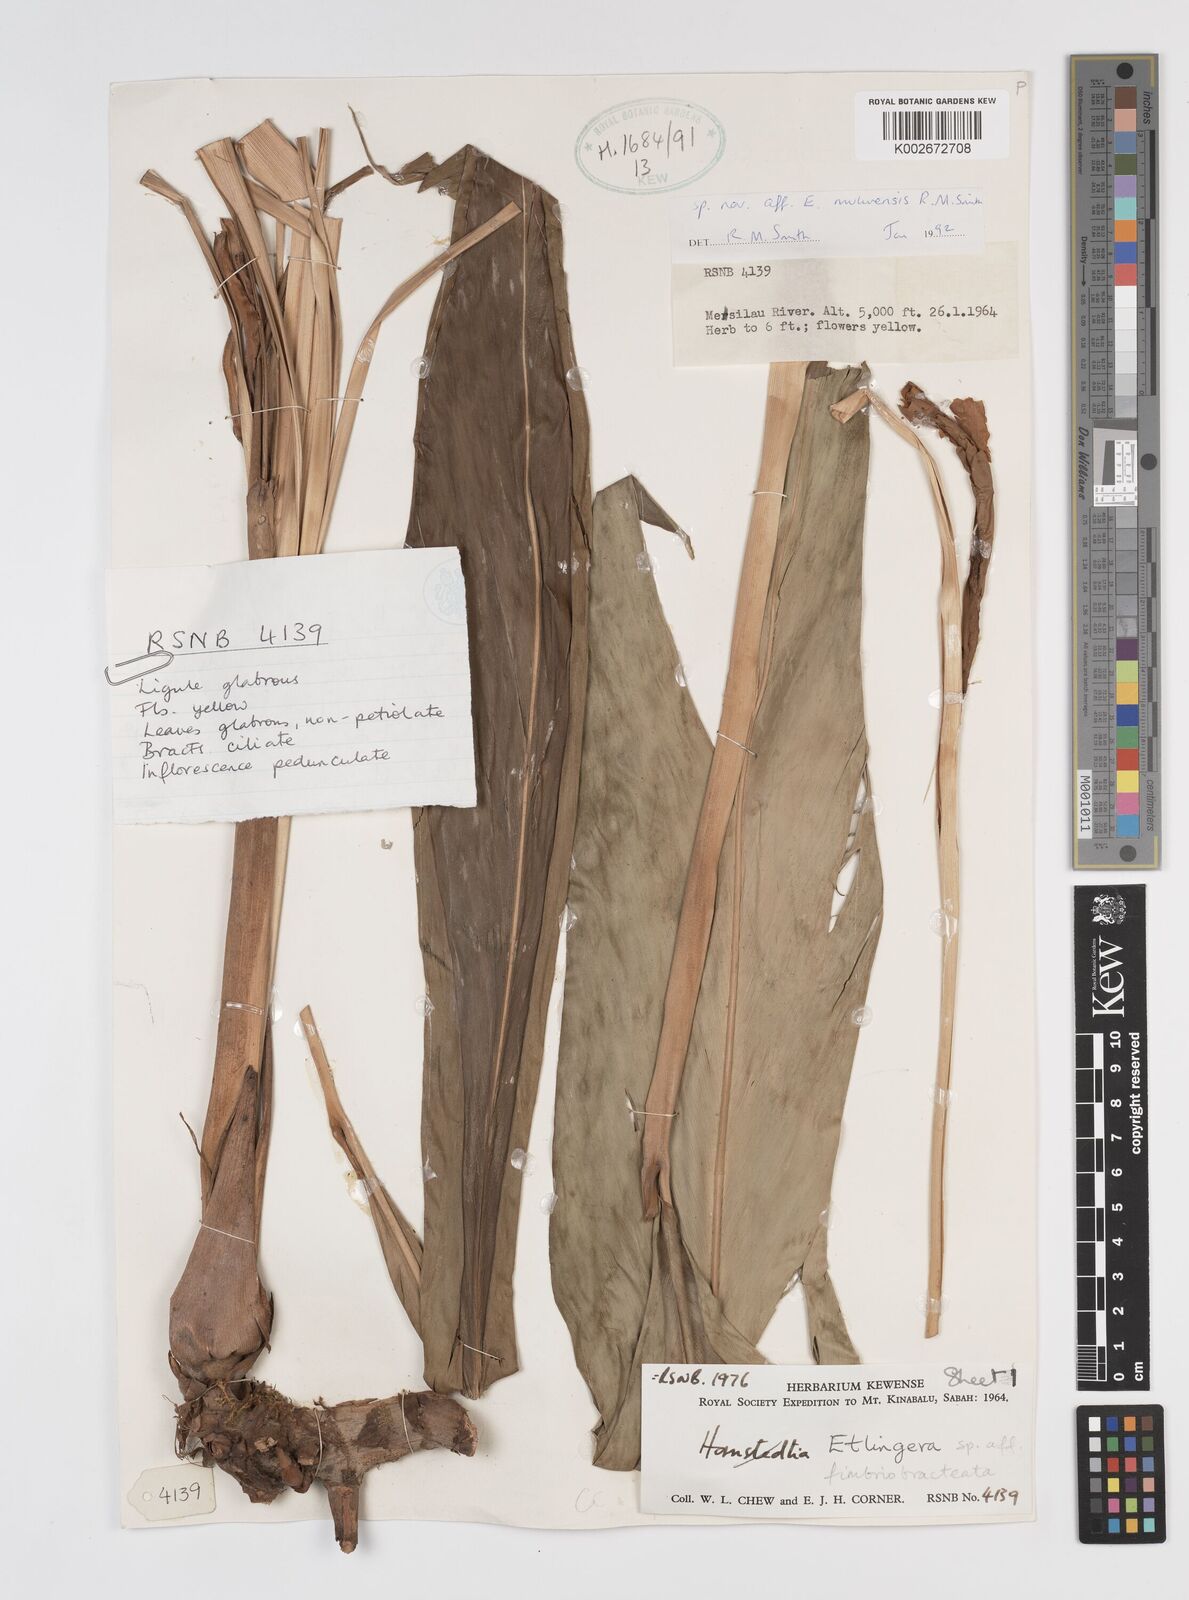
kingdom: Plantae
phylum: Tracheophyta
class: Liliopsida
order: Zingiberales
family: Zingiberaceae
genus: Etlingera
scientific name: Etlingera pubescens
